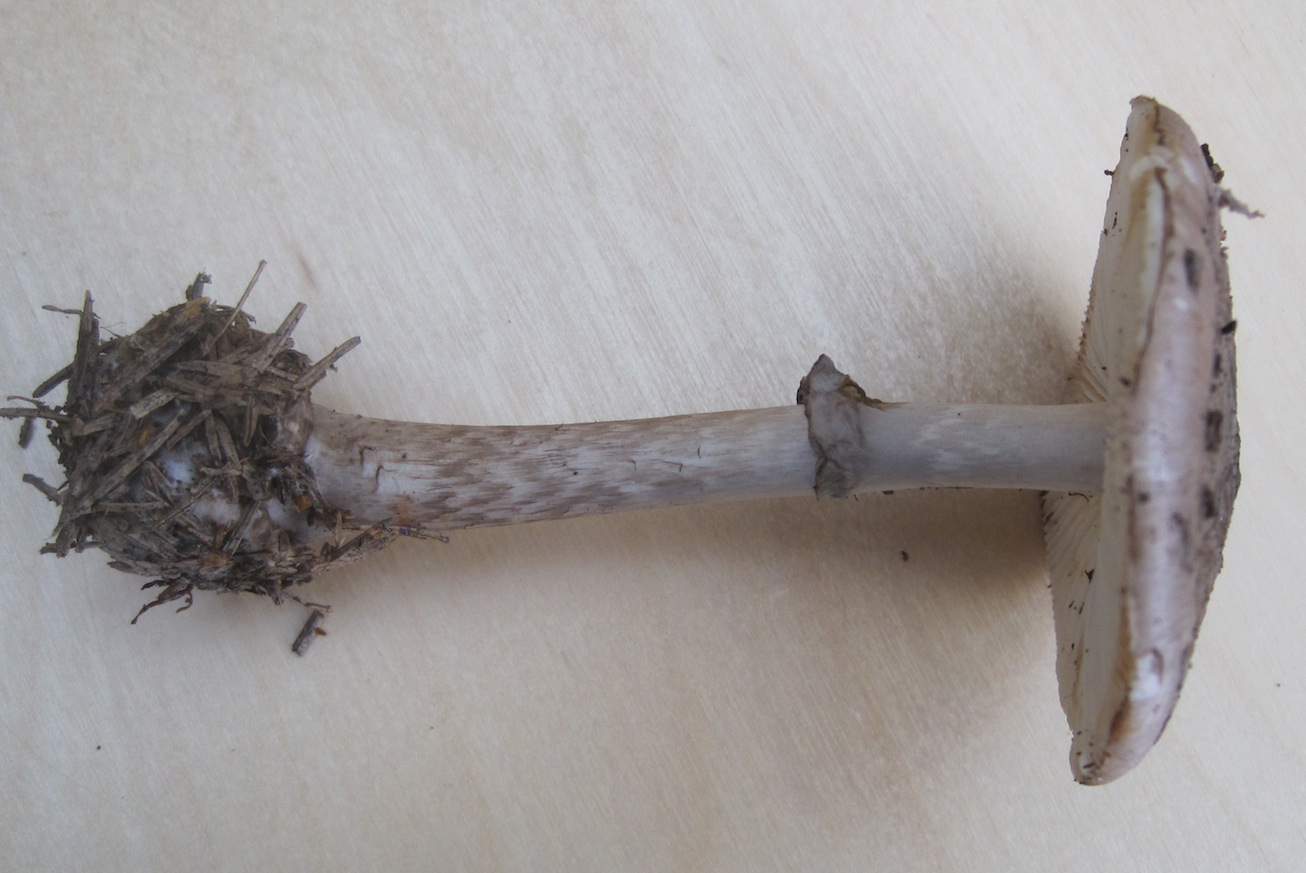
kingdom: Fungi
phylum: Basidiomycota
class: Agaricomycetes
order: Agaricales
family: Amanitaceae
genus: Amanita
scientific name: Amanita porphyria
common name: porfyr-fluesvamp
